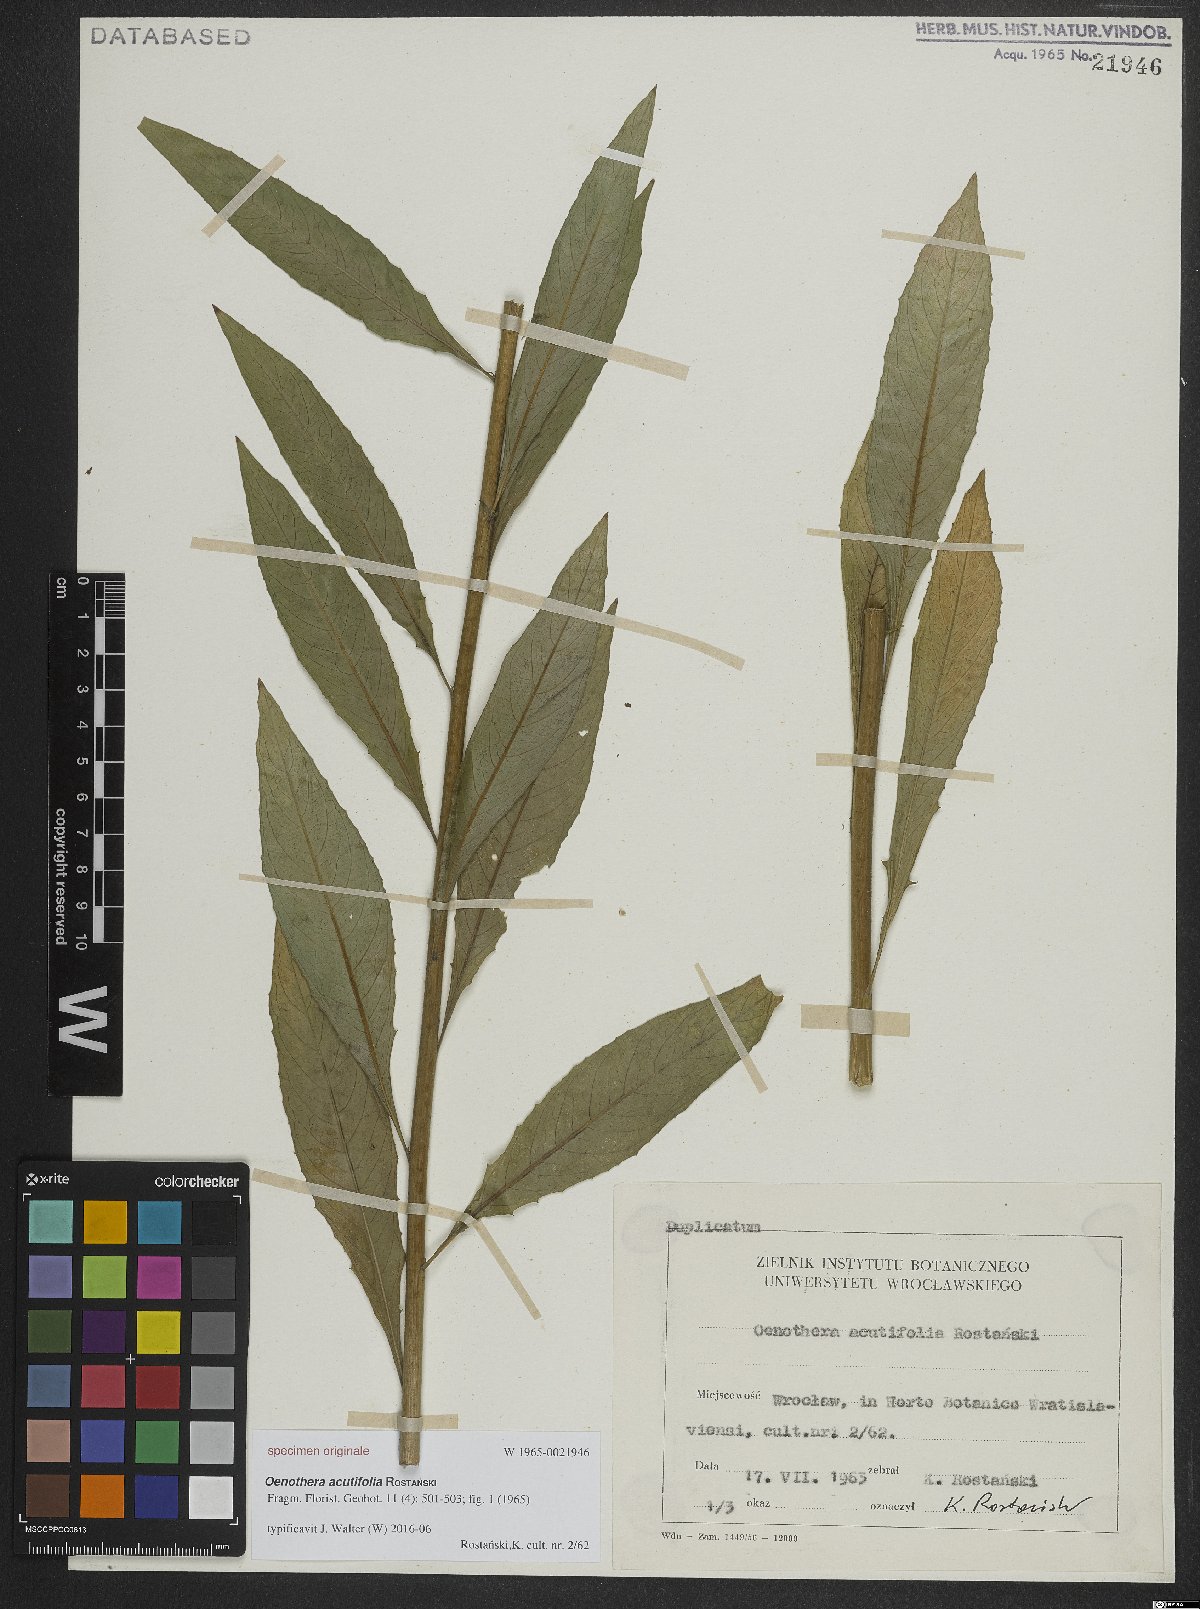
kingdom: Plantae
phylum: Tracheophyta
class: Magnoliopsida
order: Myrtales
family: Onagraceae
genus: Oenothera
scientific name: Oenothera acutifolia
